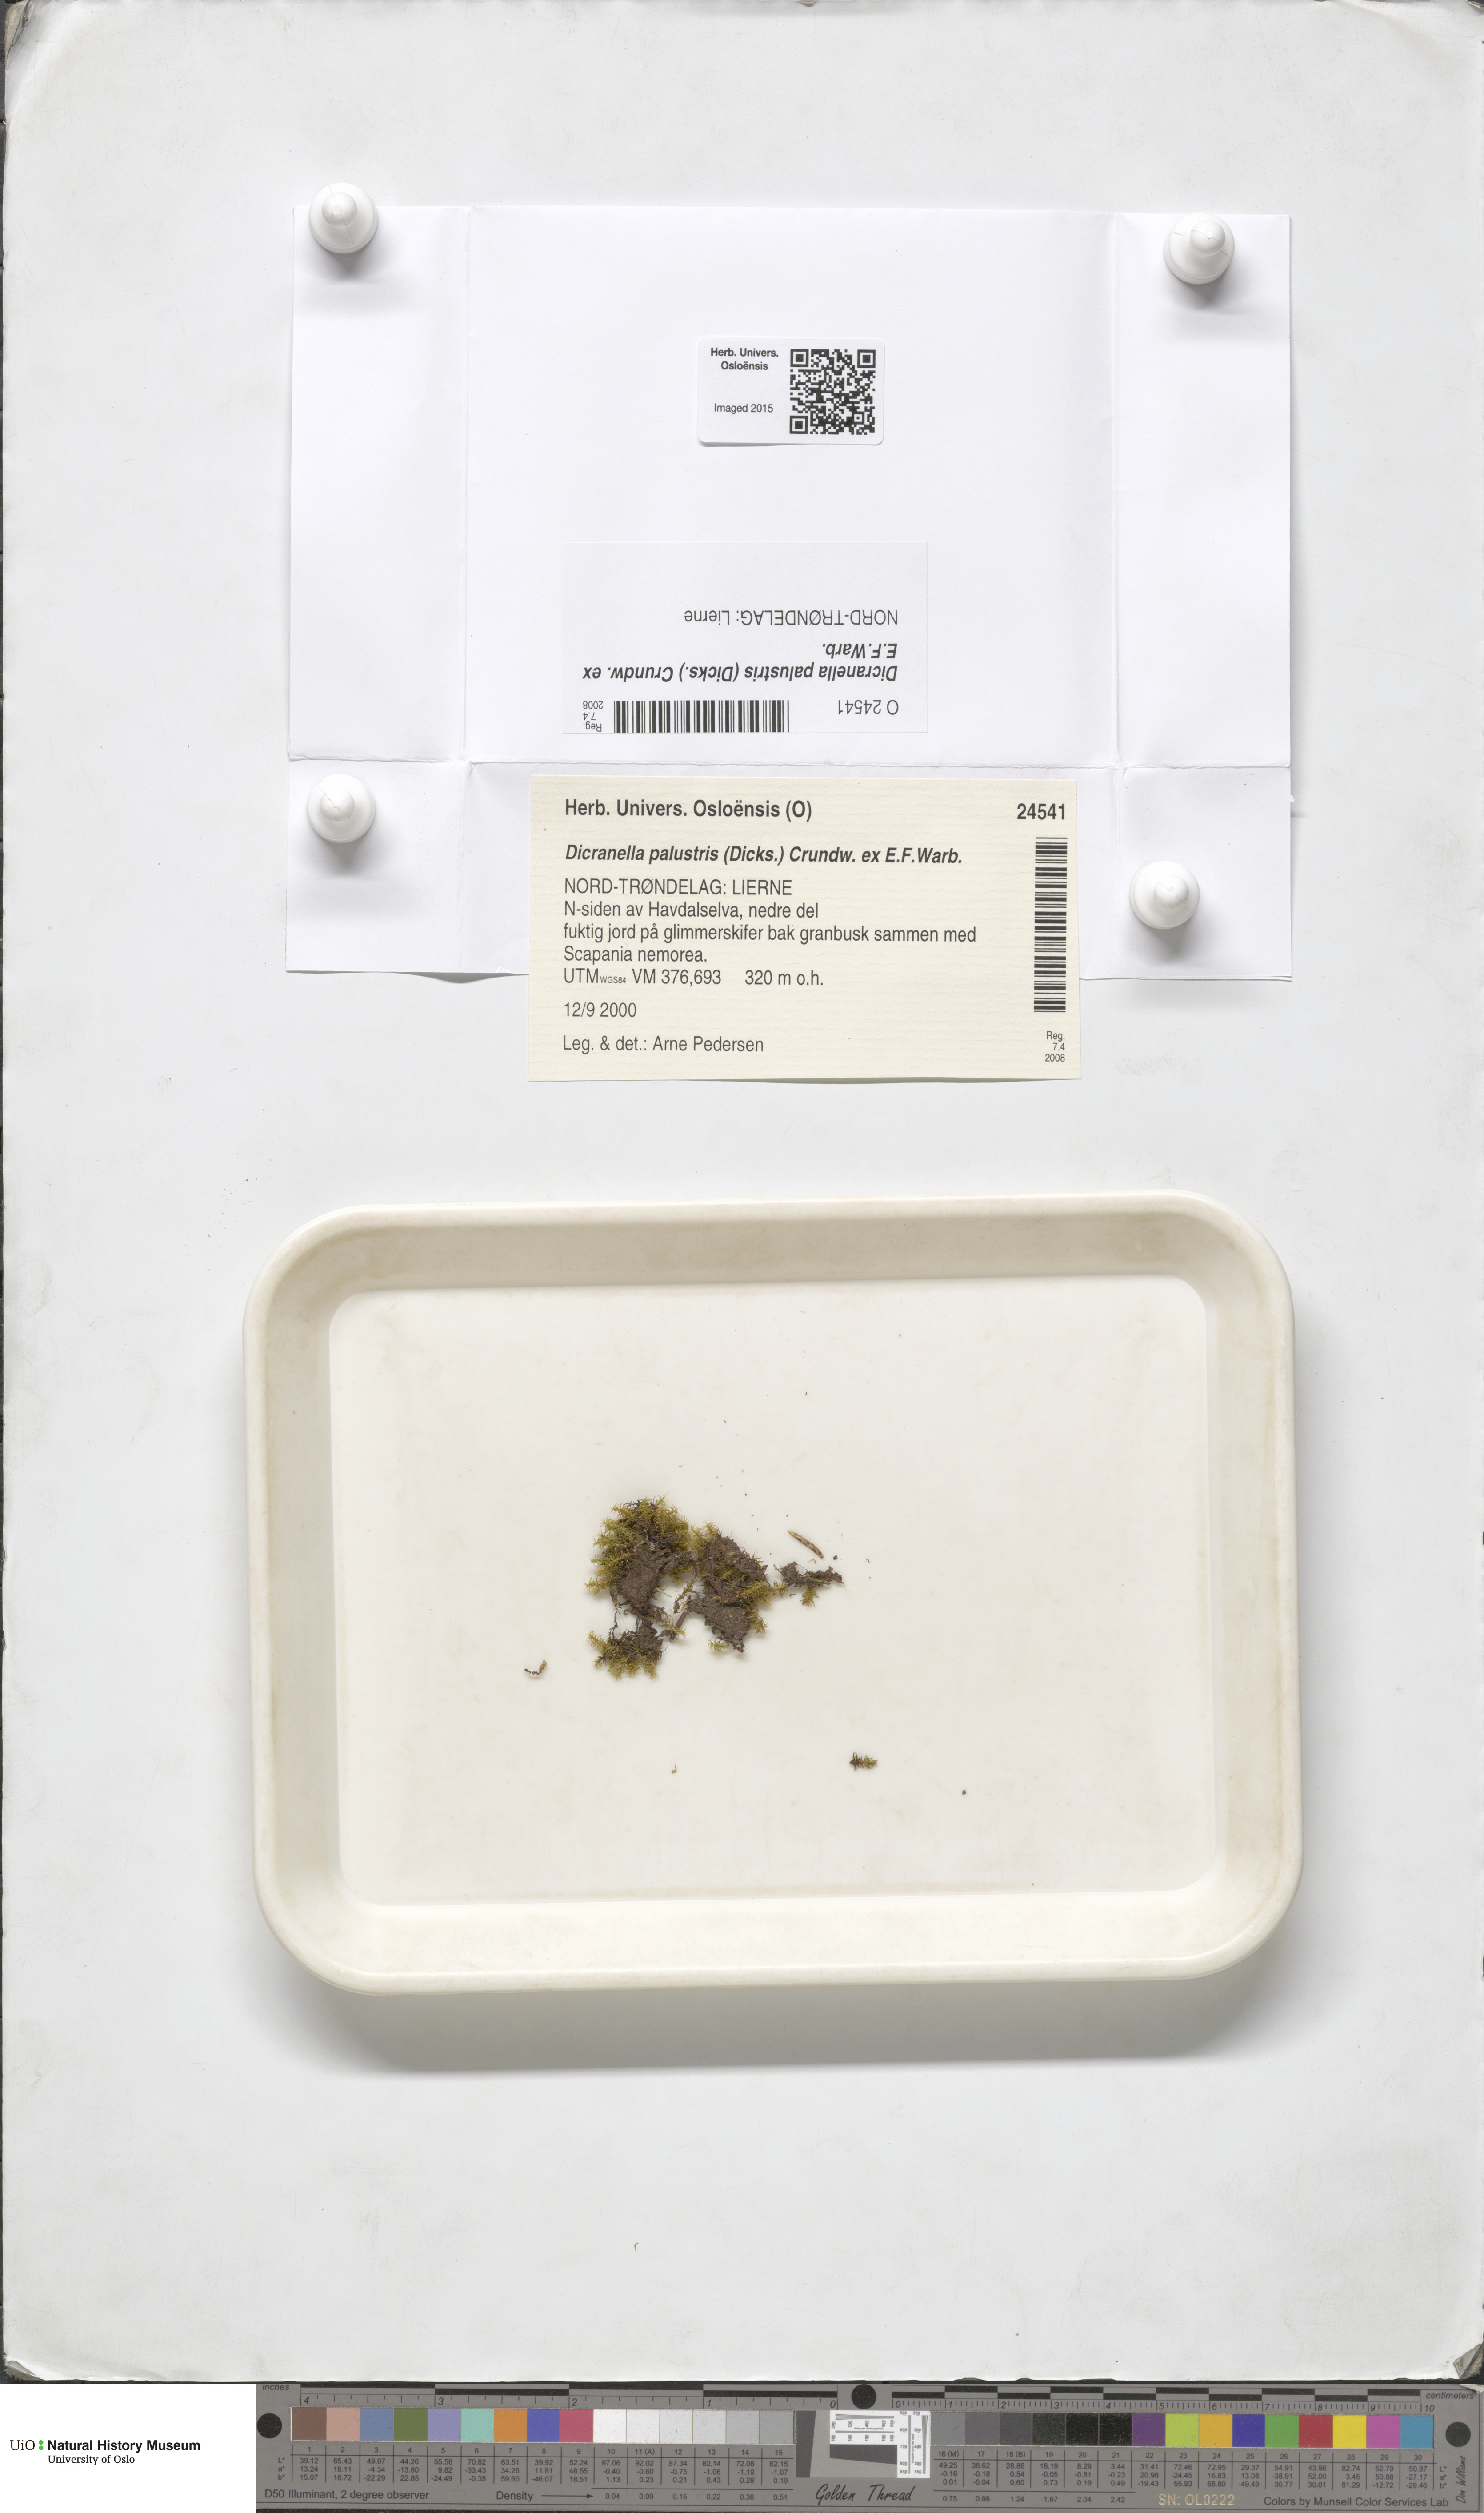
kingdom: Plantae
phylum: Bryophyta
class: Bryopsida
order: Dicranales
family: Aongstroemiaceae
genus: Diobelonella
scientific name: Diobelonella palustris
